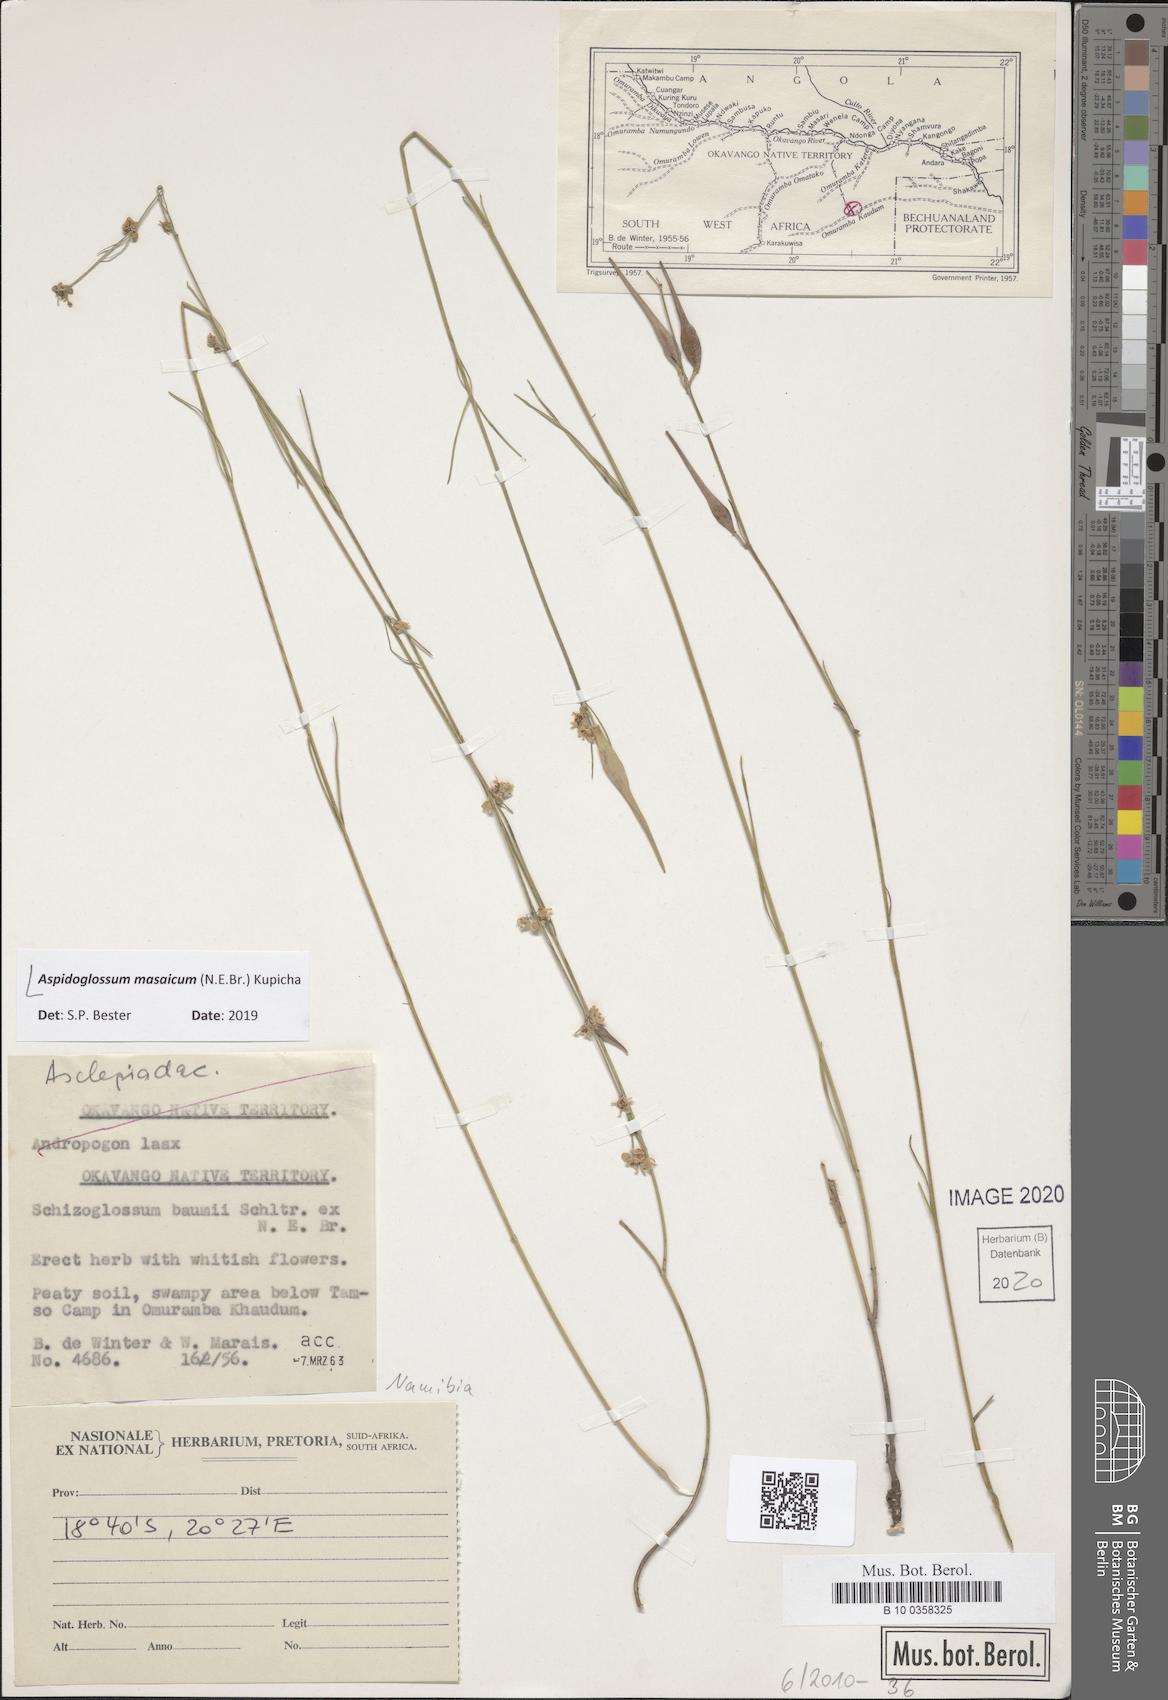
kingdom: Plantae
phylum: Tracheophyta
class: Magnoliopsida
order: Gentianales
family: Apocynaceae
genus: Aspidoglossum
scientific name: Aspidoglossum masaicum
